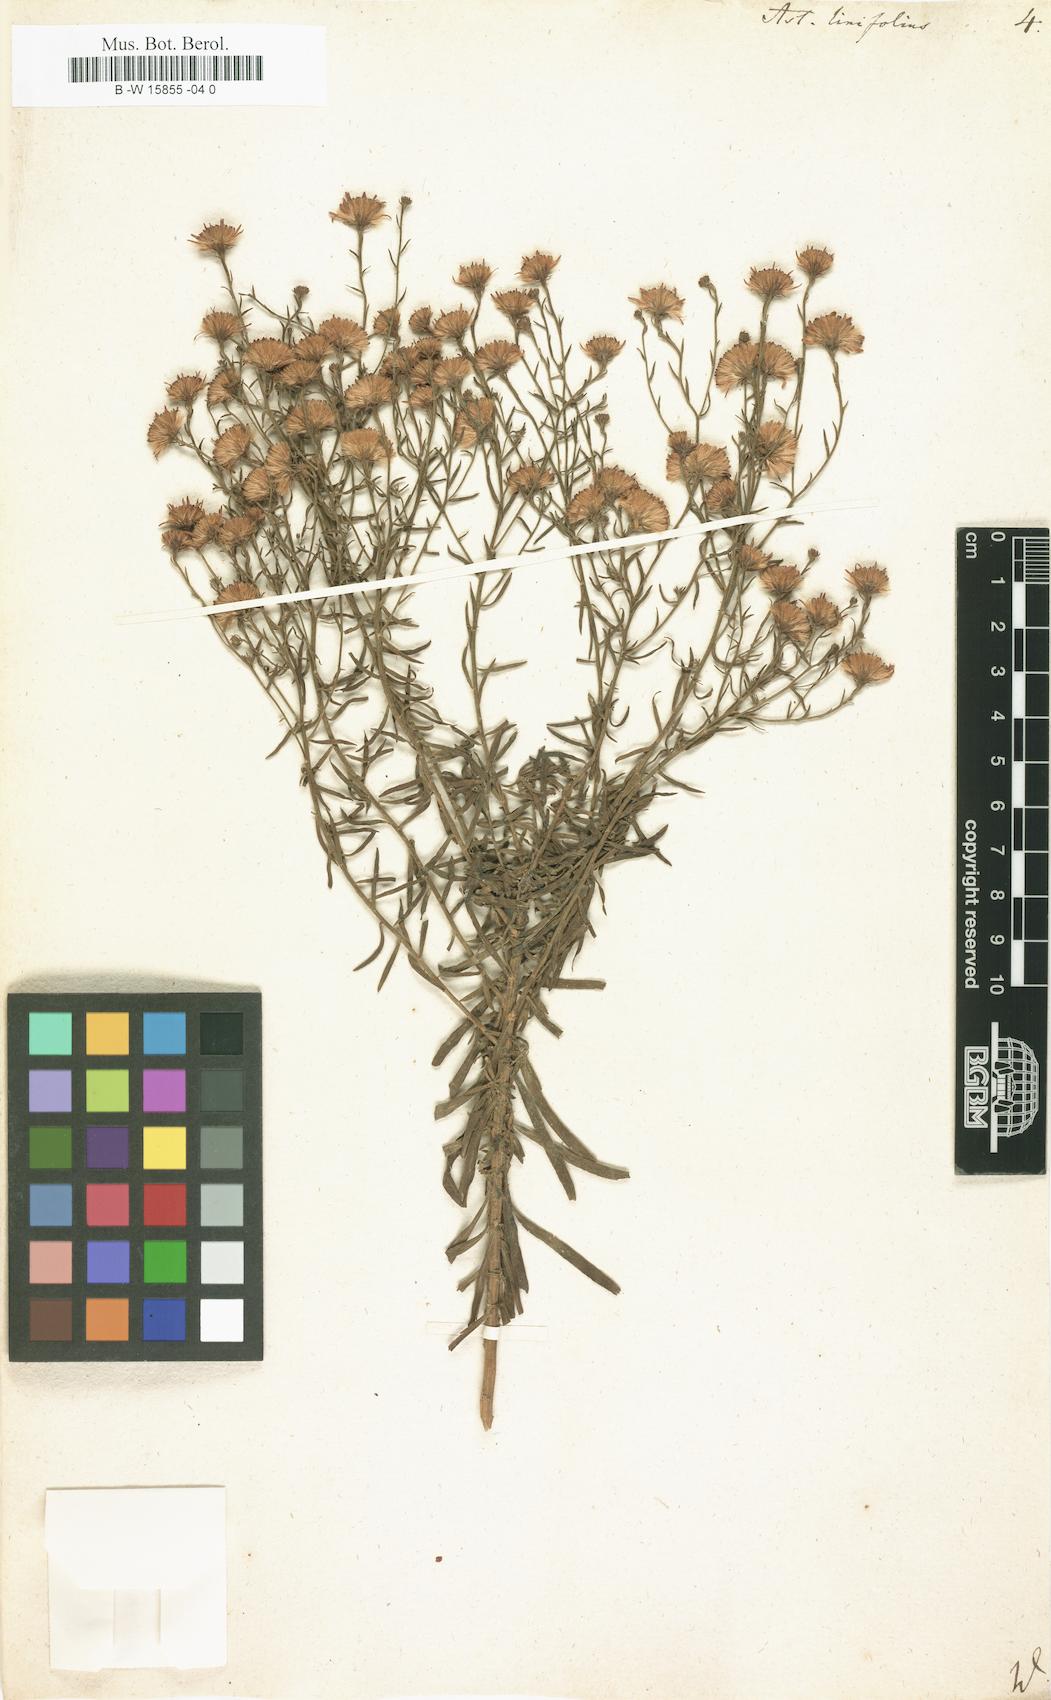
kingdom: Plantae
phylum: Tracheophyta
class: Magnoliopsida
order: Asterales
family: Asteraceae
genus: Galatella
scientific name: Galatella sedifolia
